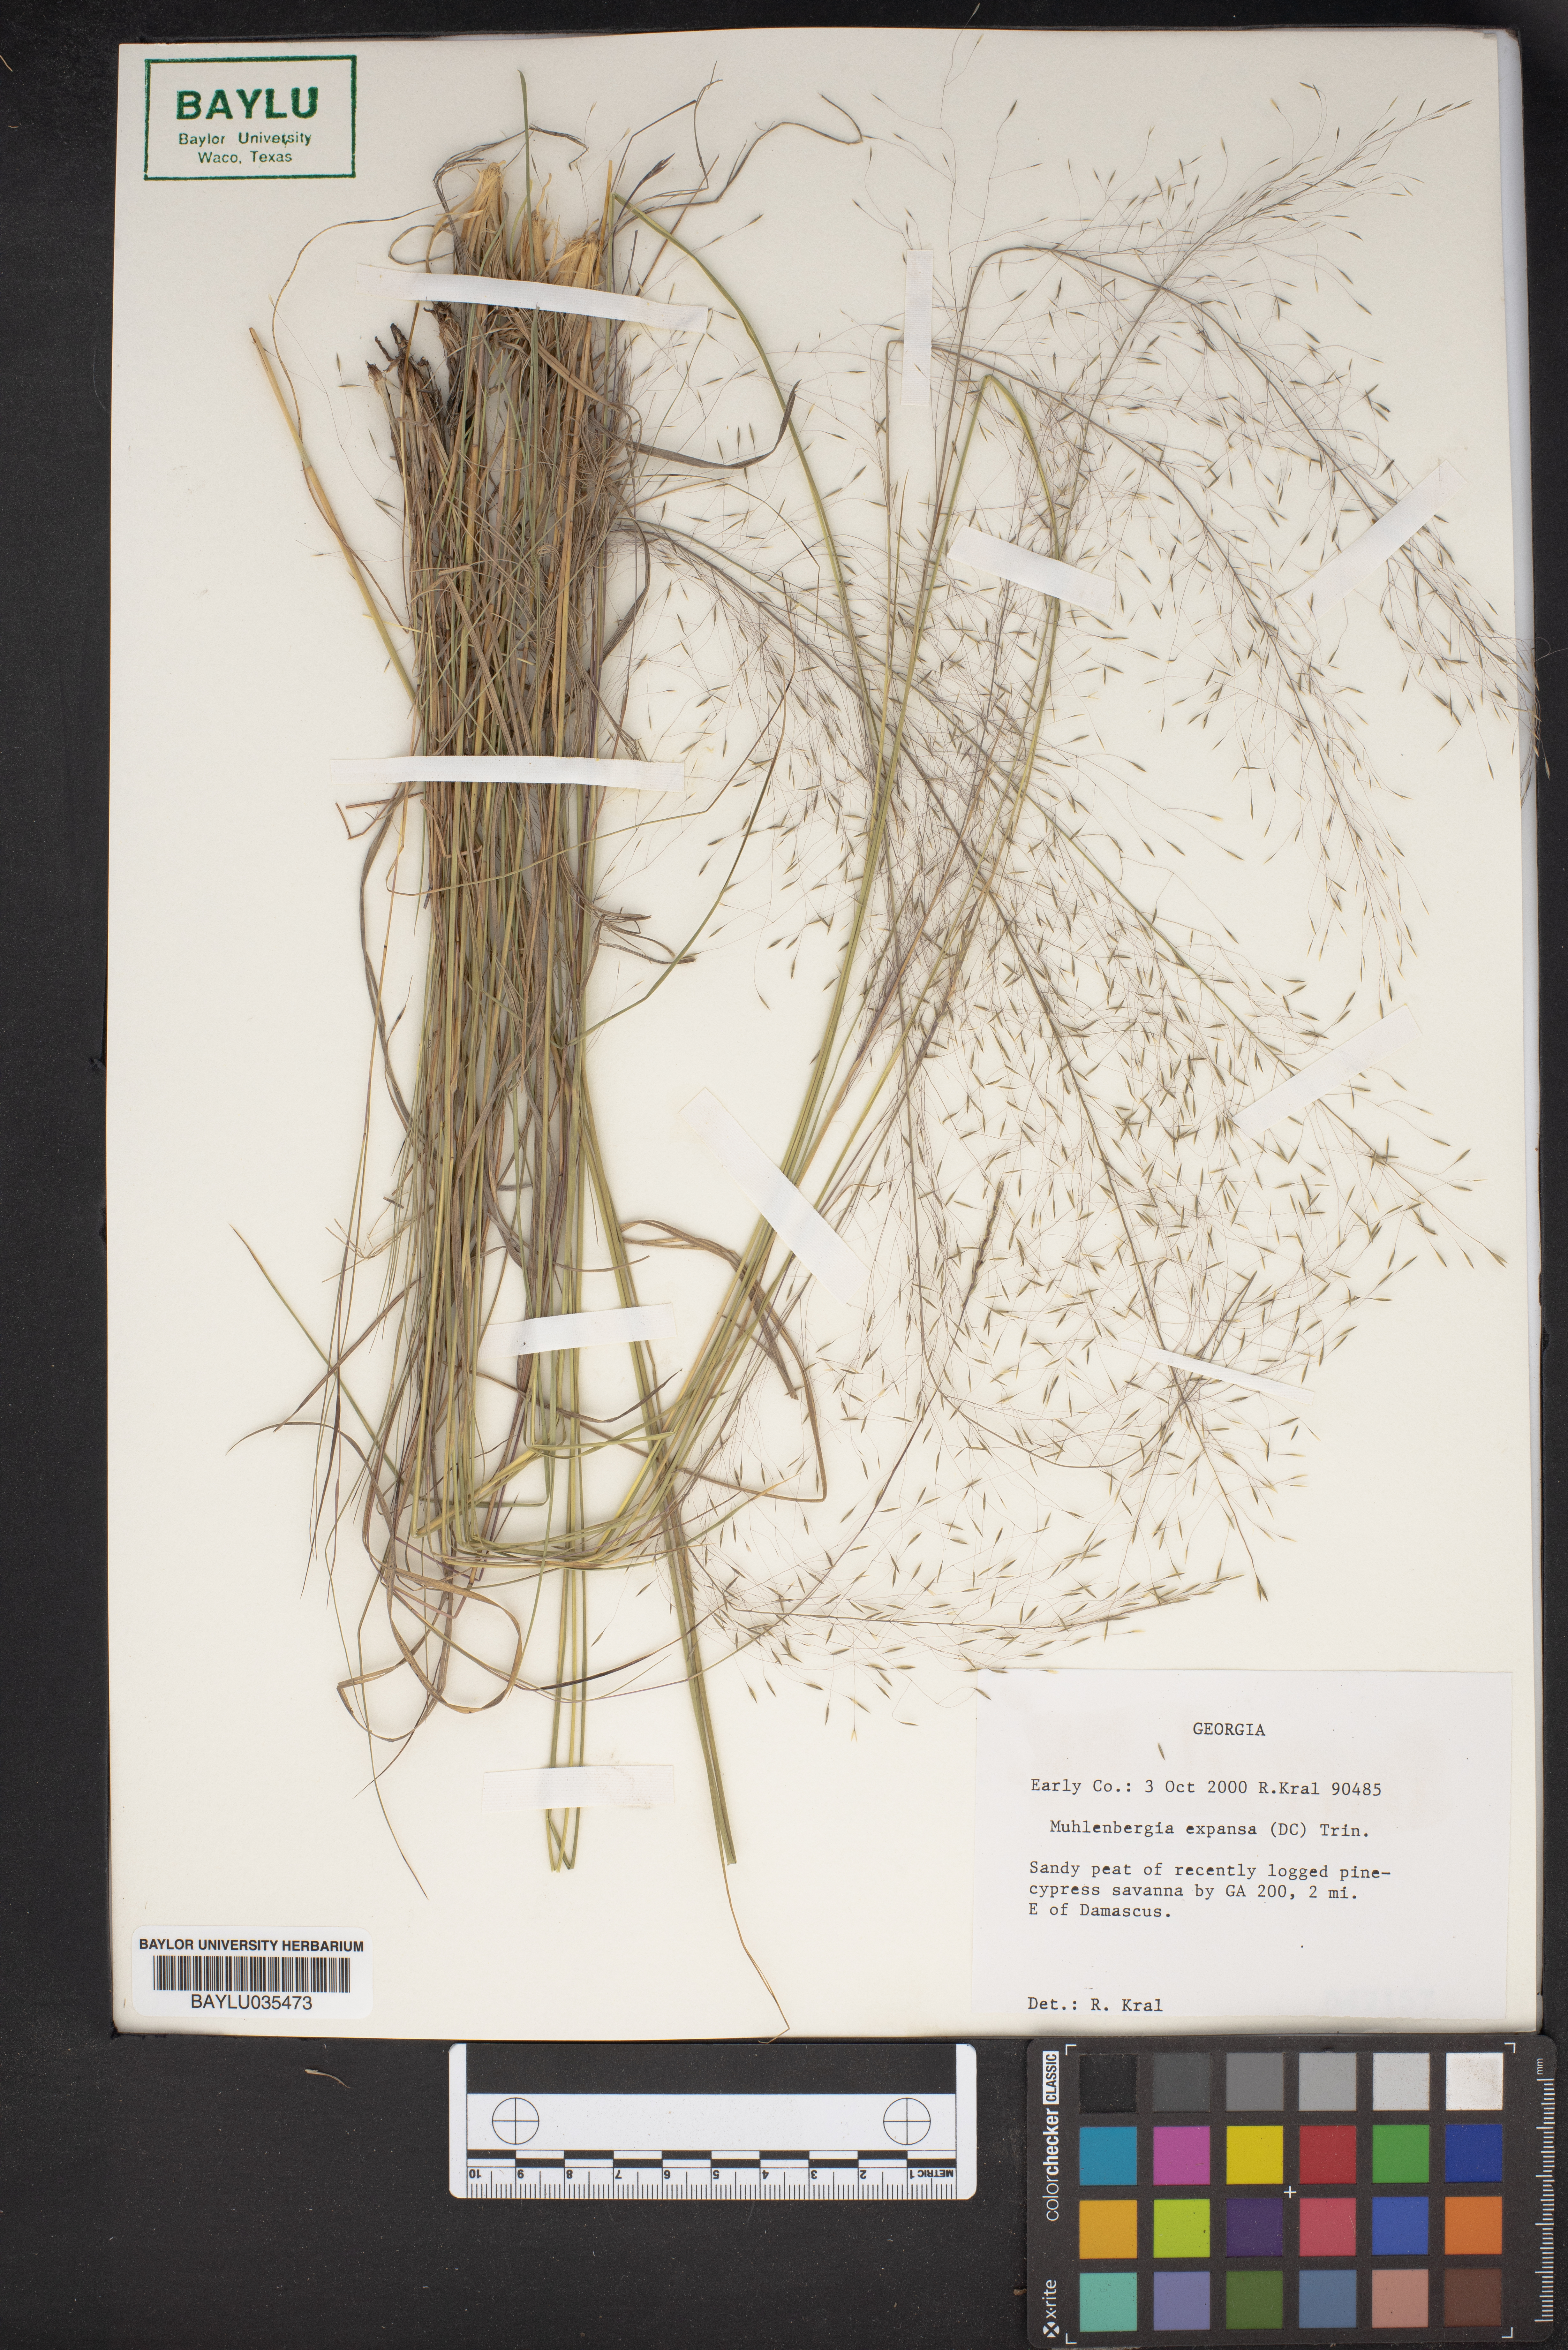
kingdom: Plantae
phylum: Tracheophyta
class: Liliopsida
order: Poales
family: Poaceae
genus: Muhlenbergia
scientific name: Muhlenbergia expansa
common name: Savannah hairgrass
